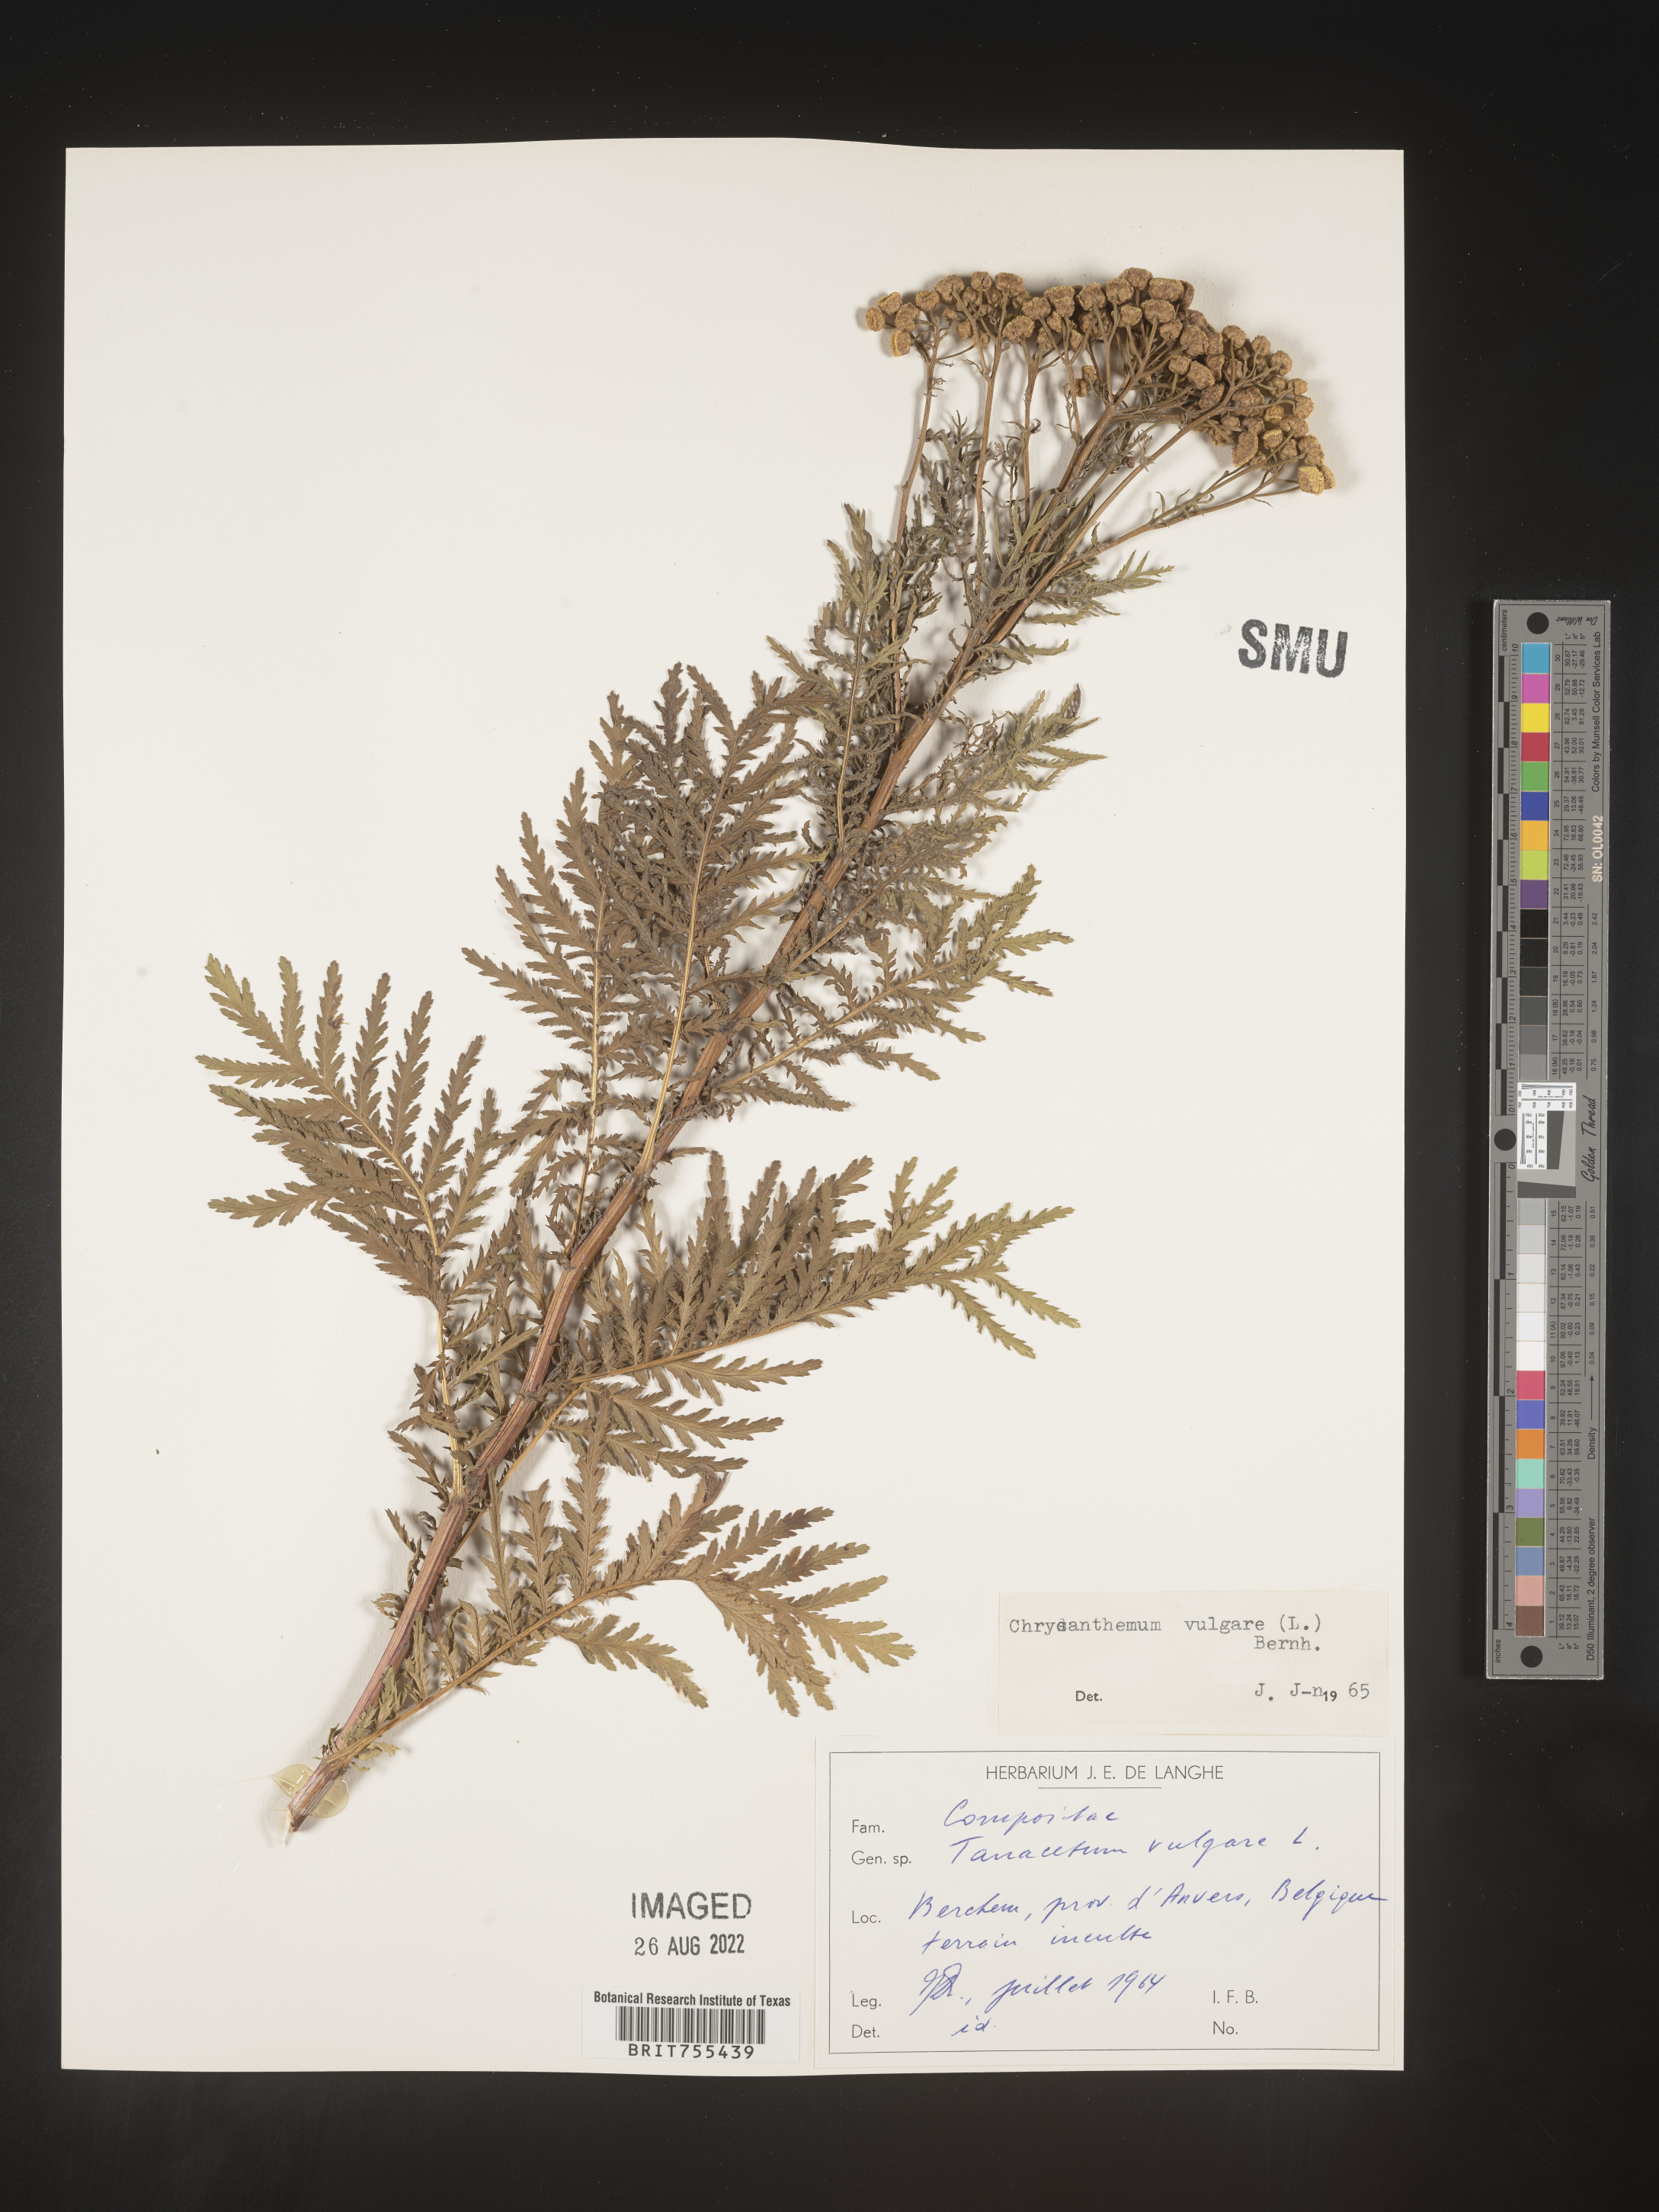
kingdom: Plantae
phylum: Tracheophyta
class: Magnoliopsida
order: Asterales
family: Asteraceae
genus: Tanacetum
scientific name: Tanacetum
